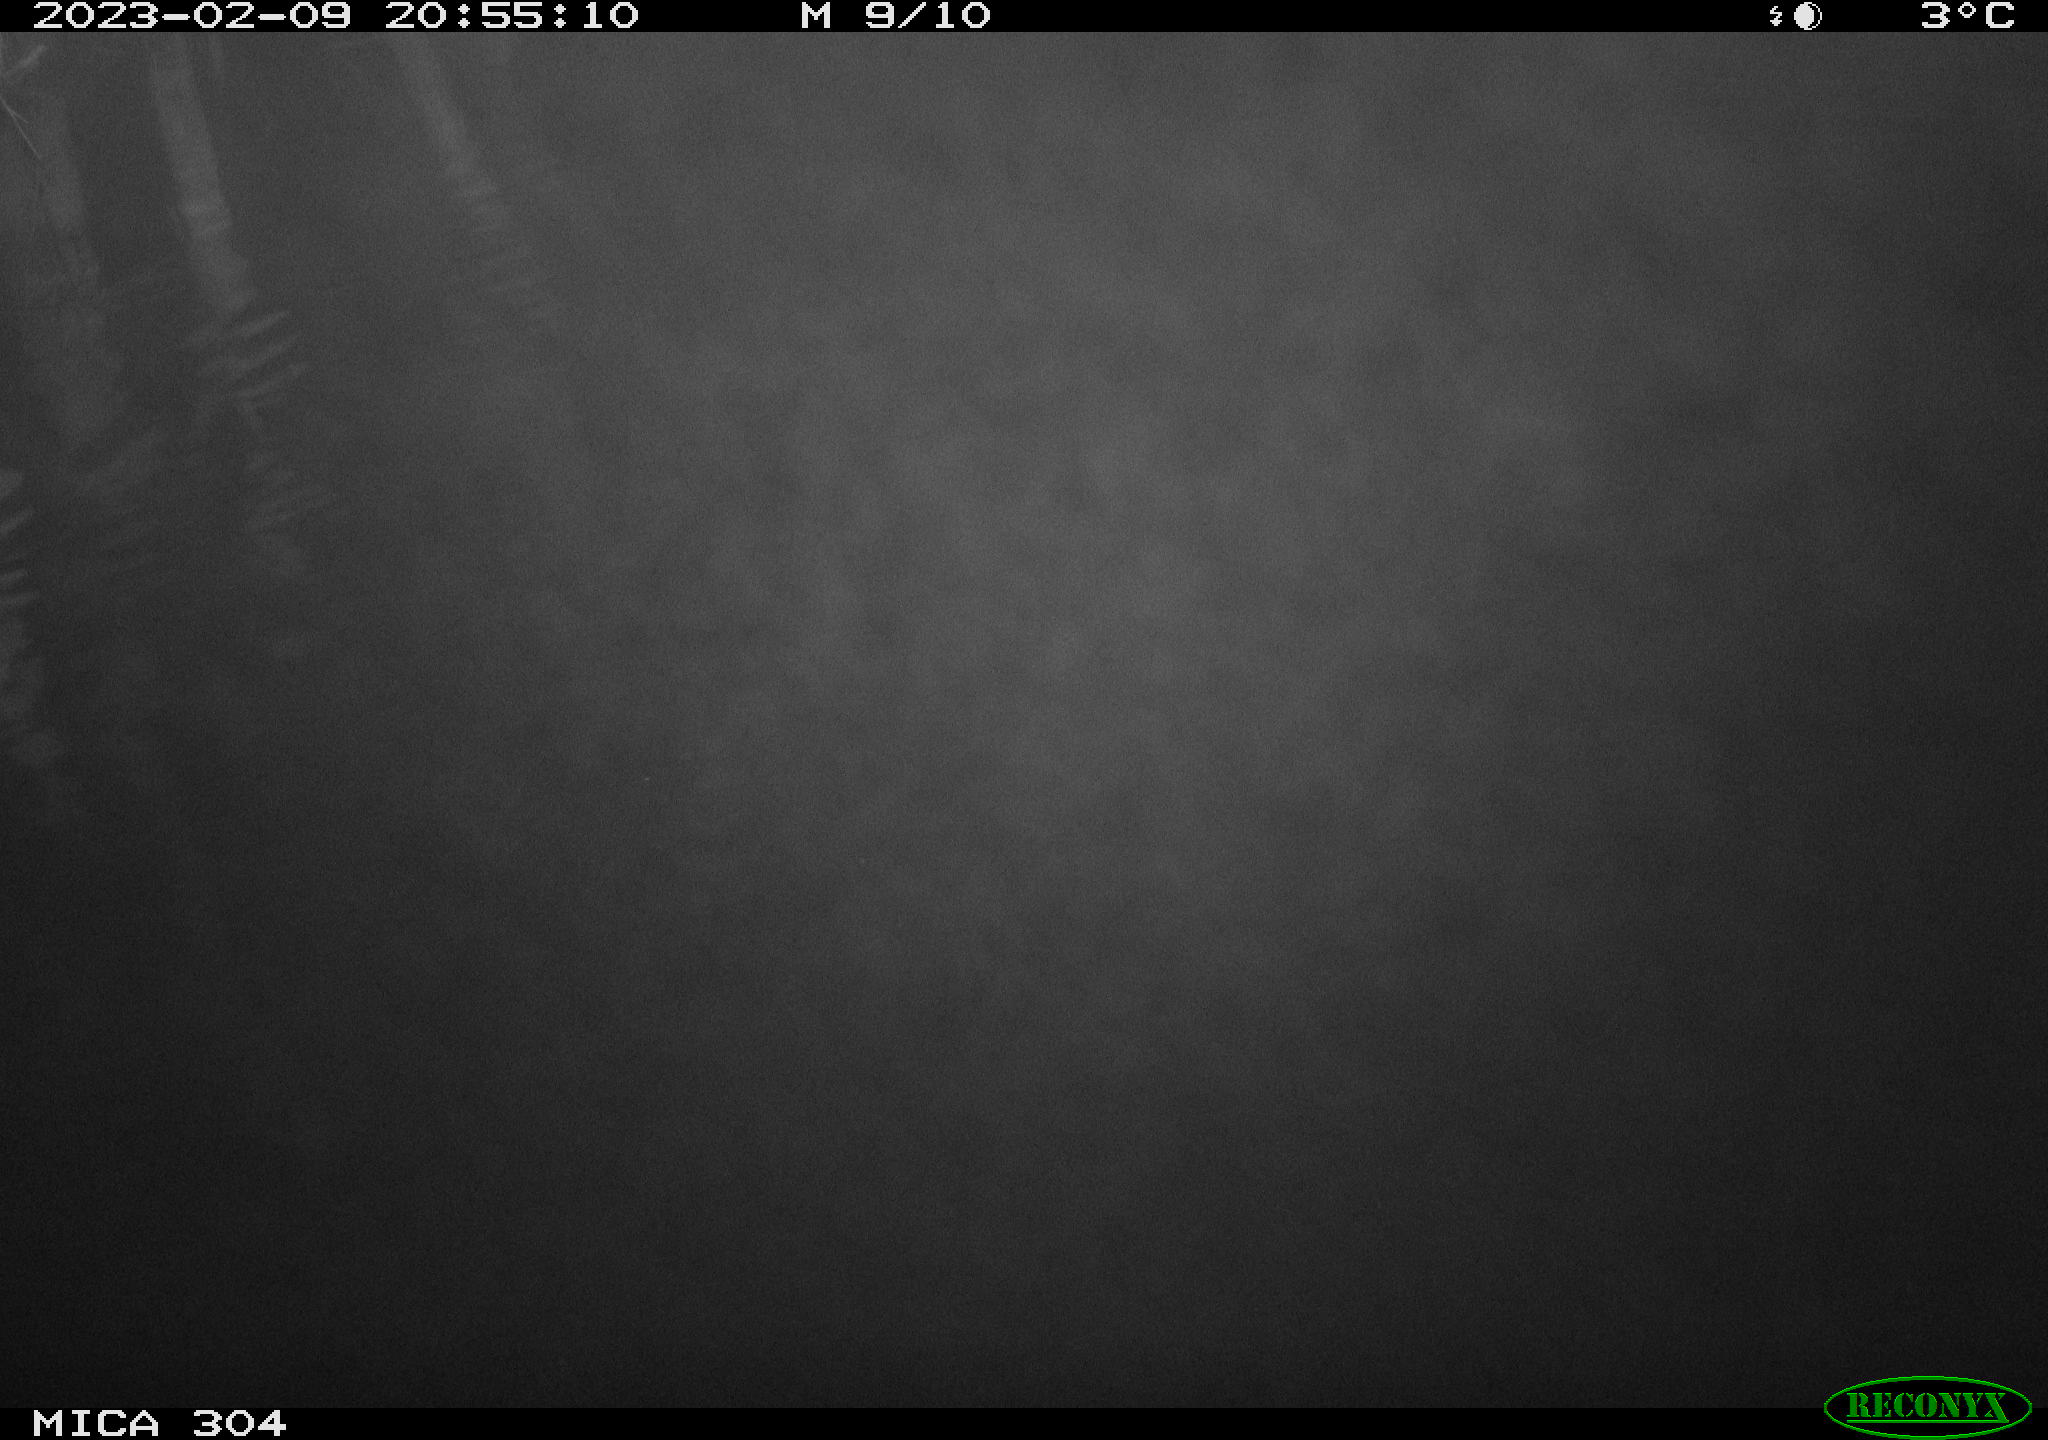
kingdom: Animalia
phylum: Chordata
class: Mammalia
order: Rodentia
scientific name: Rodentia
